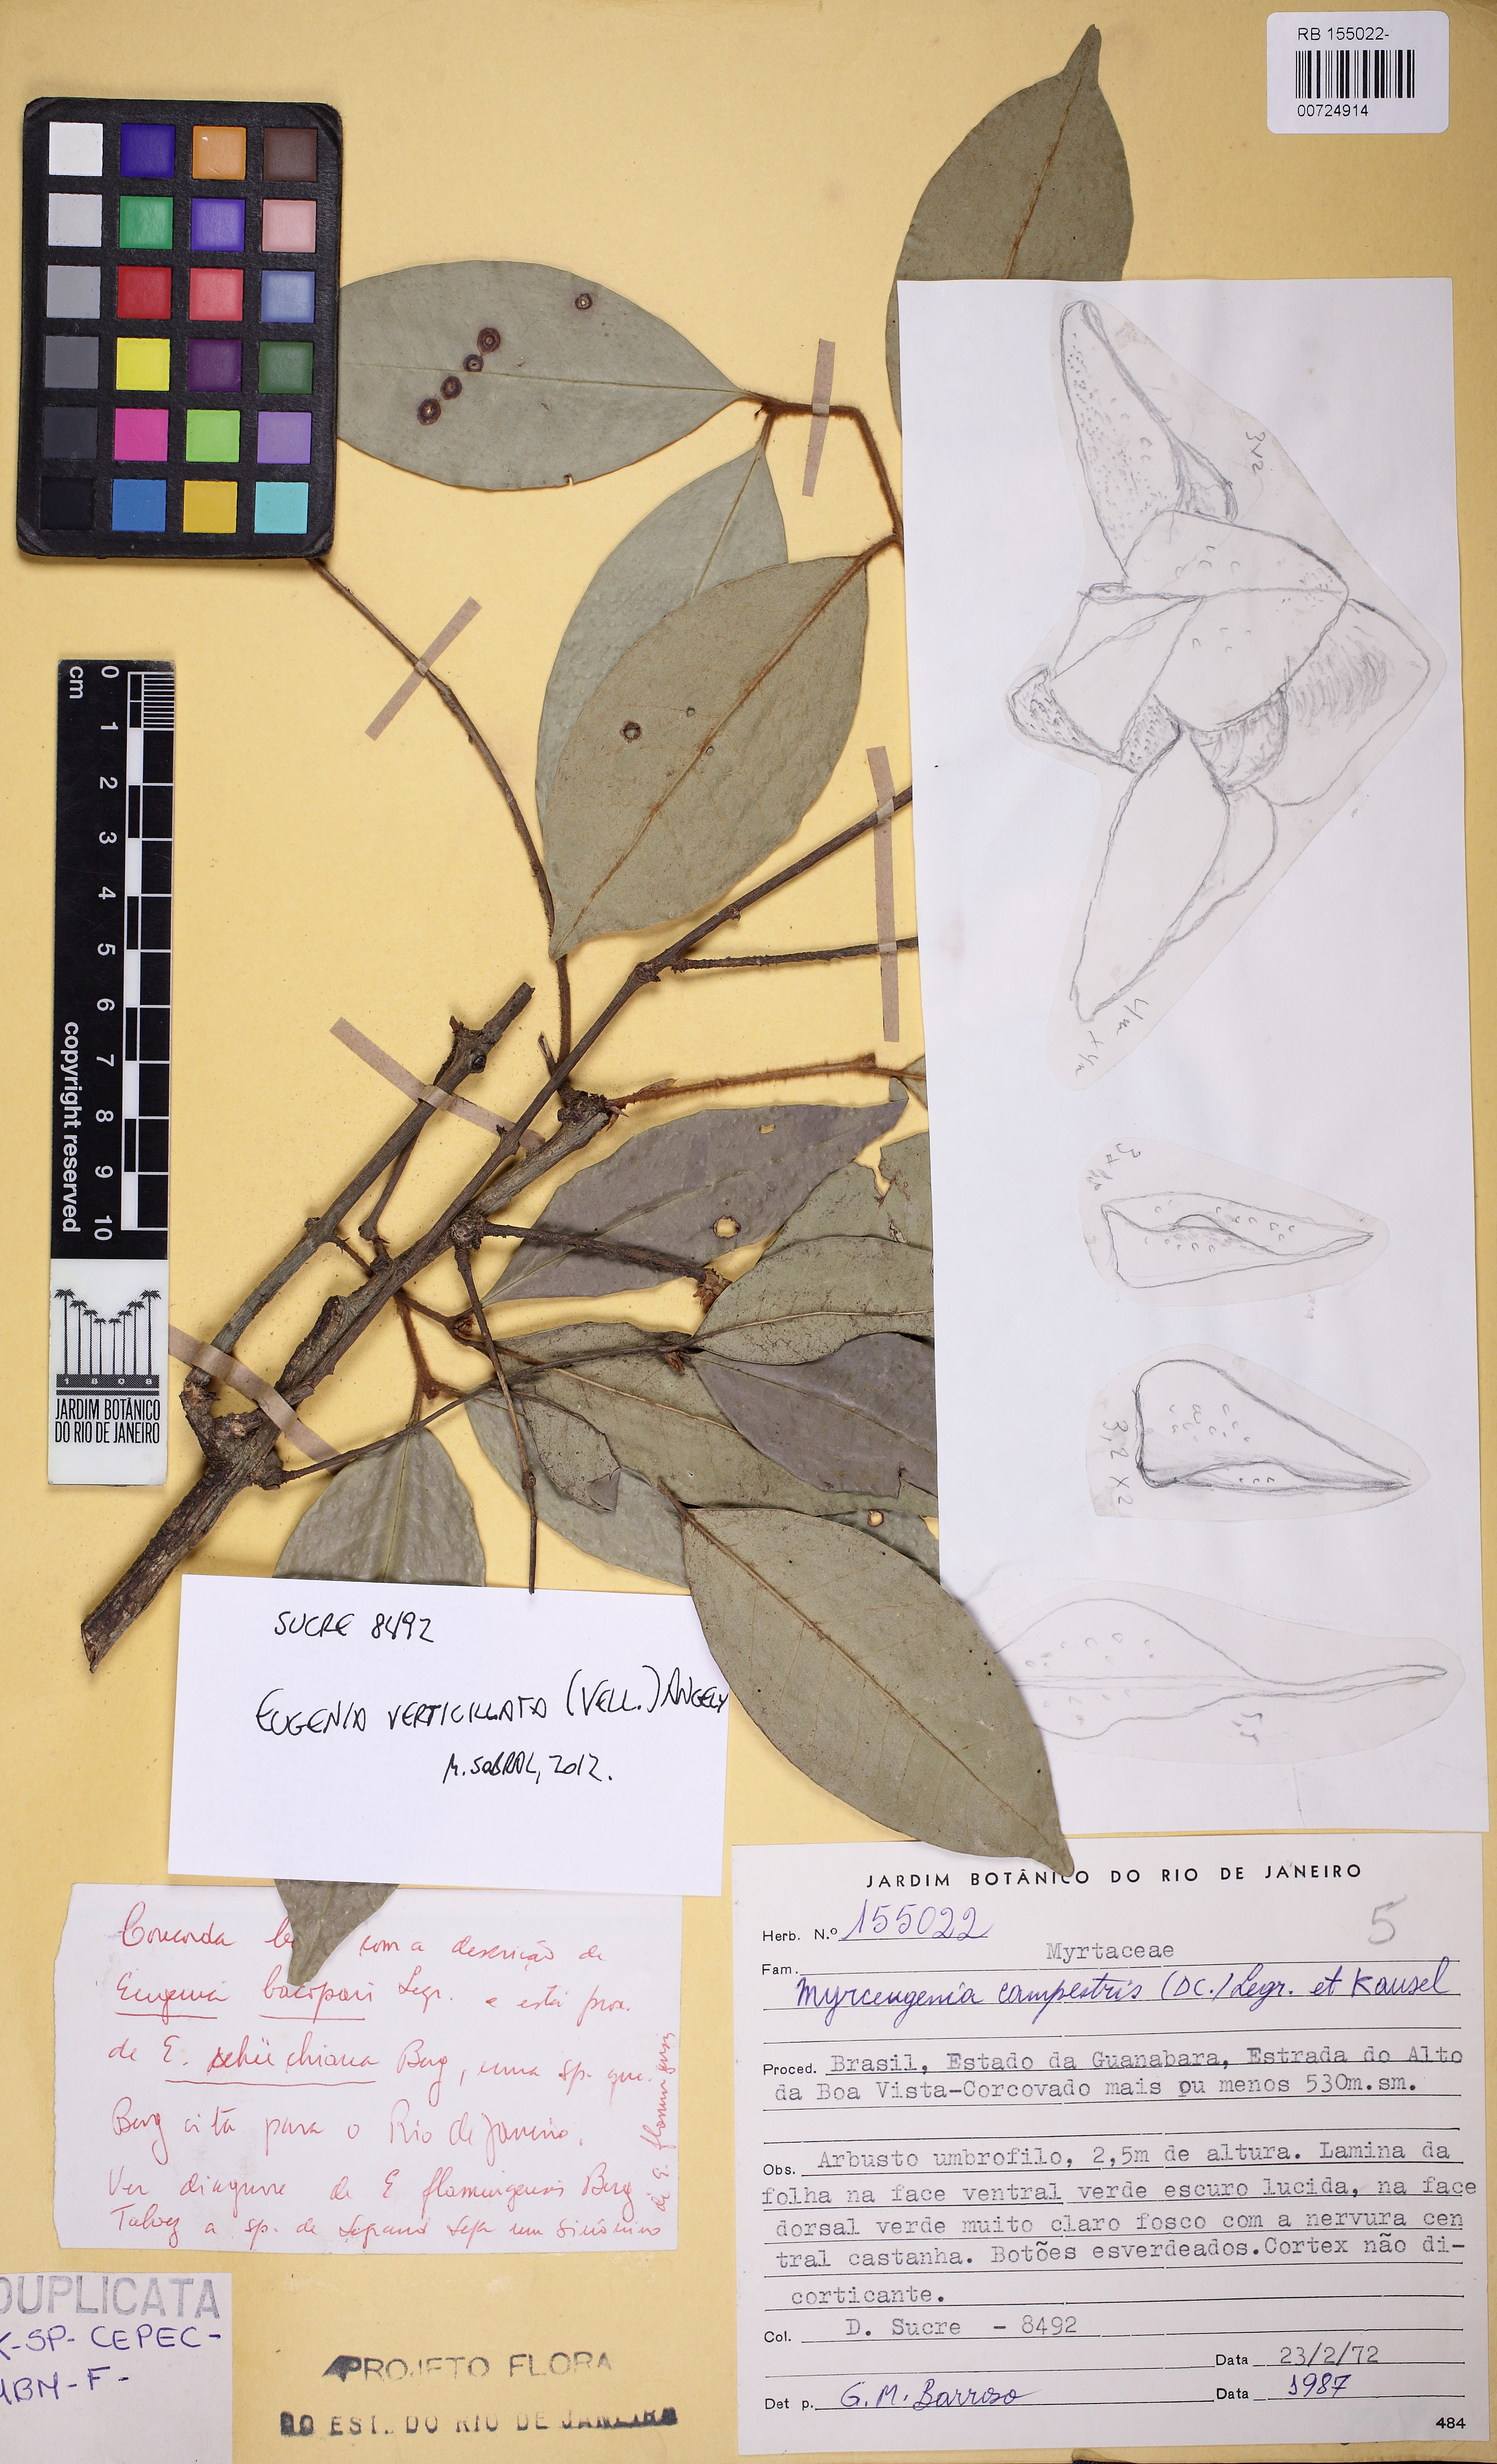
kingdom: Plantae
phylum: Tracheophyta
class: Magnoliopsida
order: Myrtales
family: Myrtaceae
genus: Eugenia
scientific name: Eugenia verticillata
